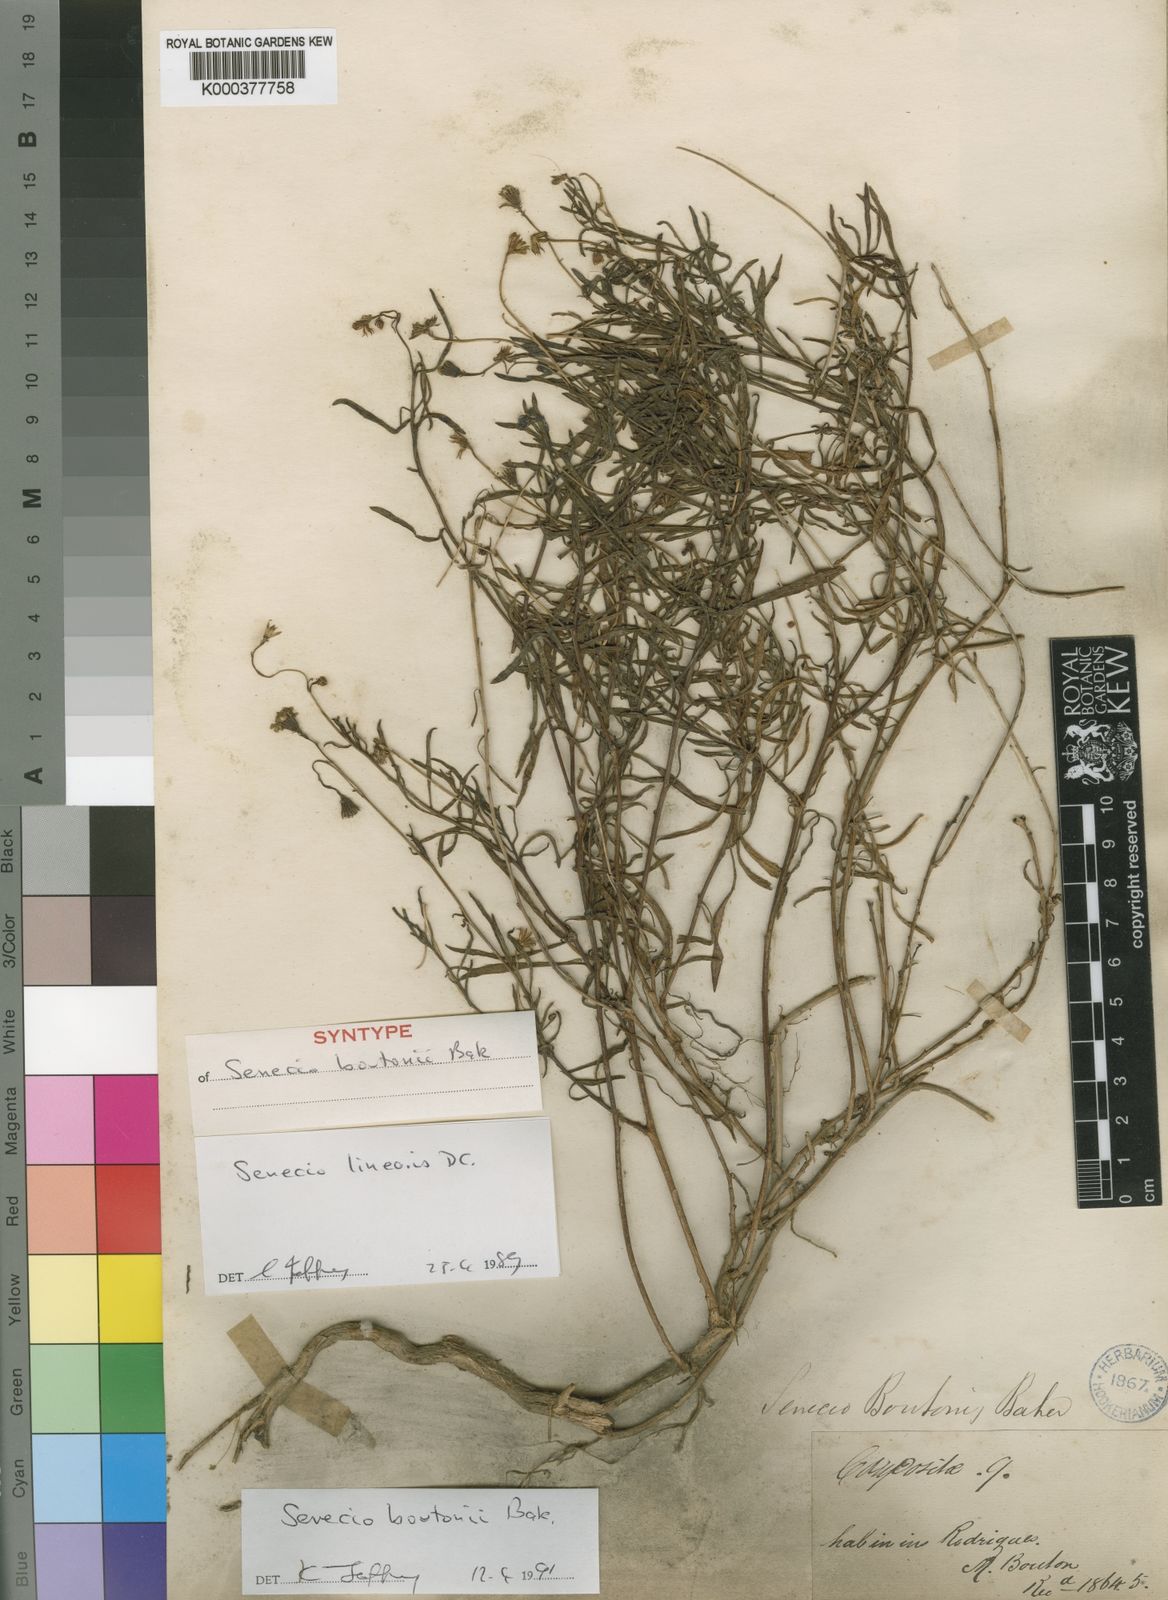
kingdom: Plantae
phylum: Tracheophyta
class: Magnoliopsida
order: Asterales
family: Asteraceae
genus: Senecio
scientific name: Senecio boutonii
